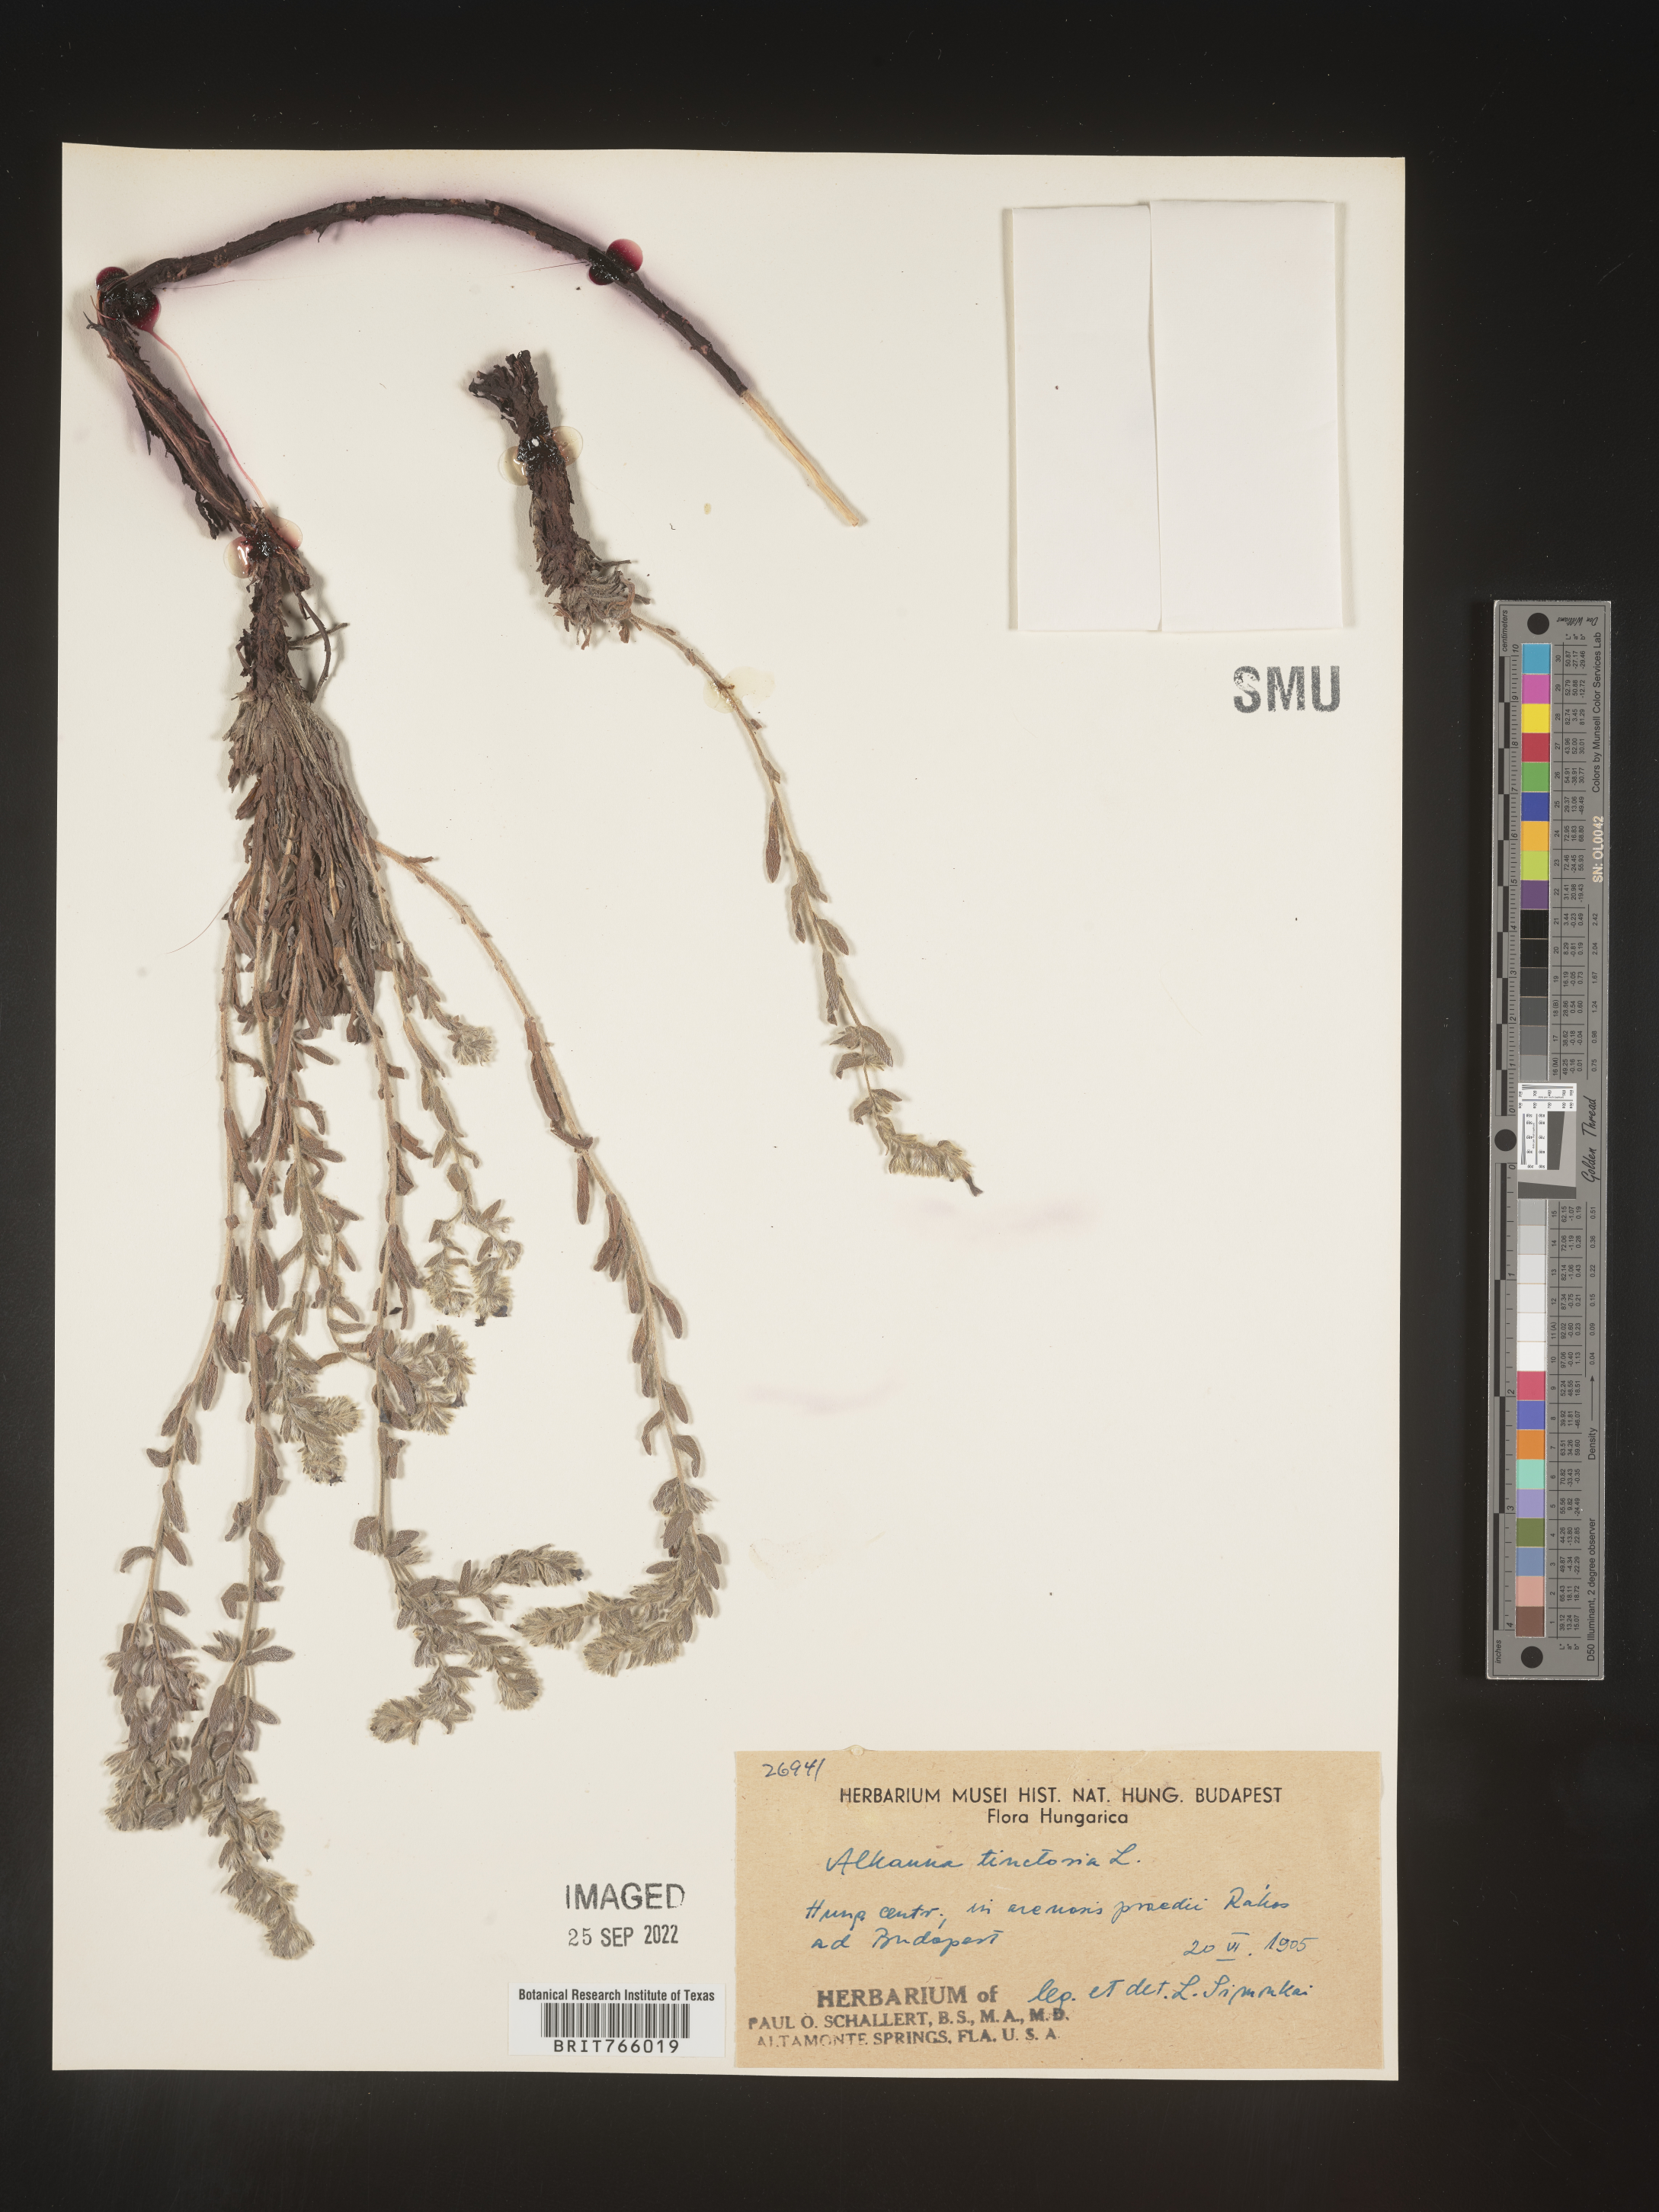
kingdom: Plantae
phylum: Tracheophyta
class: Magnoliopsida
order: Boraginales
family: Boraginaceae
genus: Alkanna
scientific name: Alkanna
